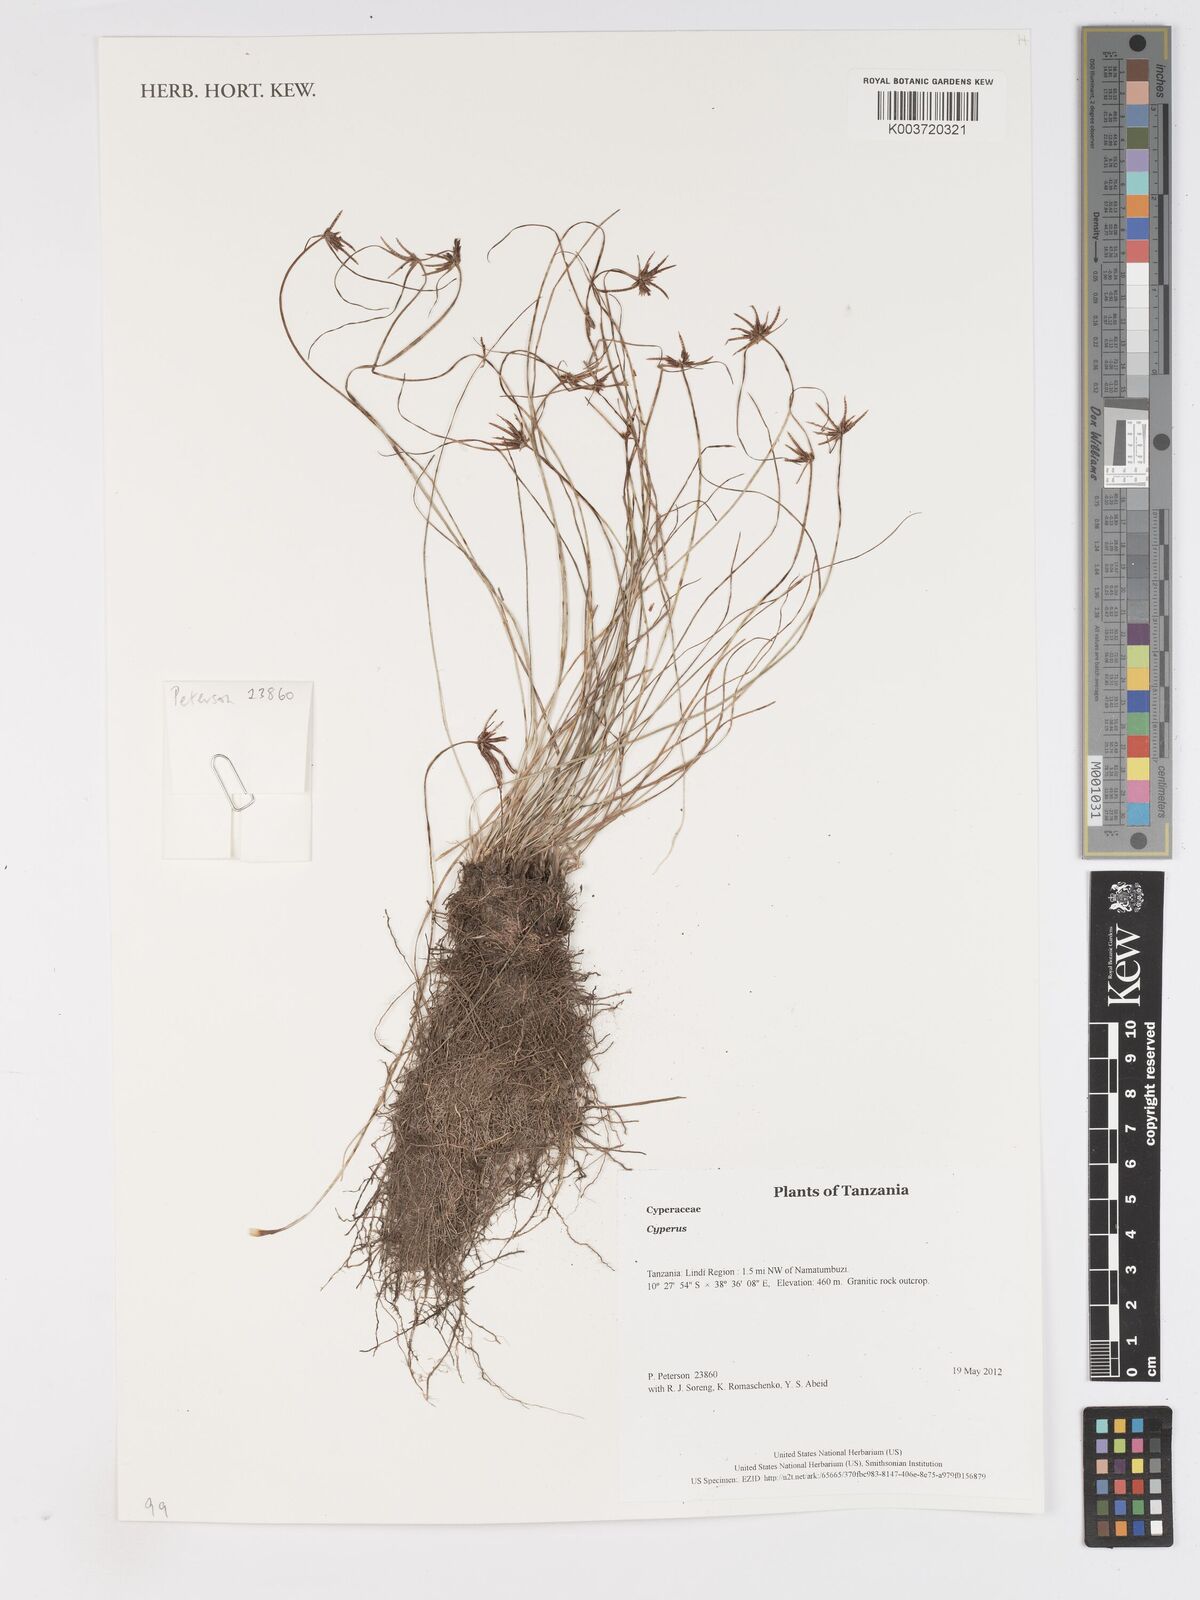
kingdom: Plantae
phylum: Tracheophyta
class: Liliopsida
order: Poales
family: Cyperaceae
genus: Cyperus
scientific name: Cyperus
